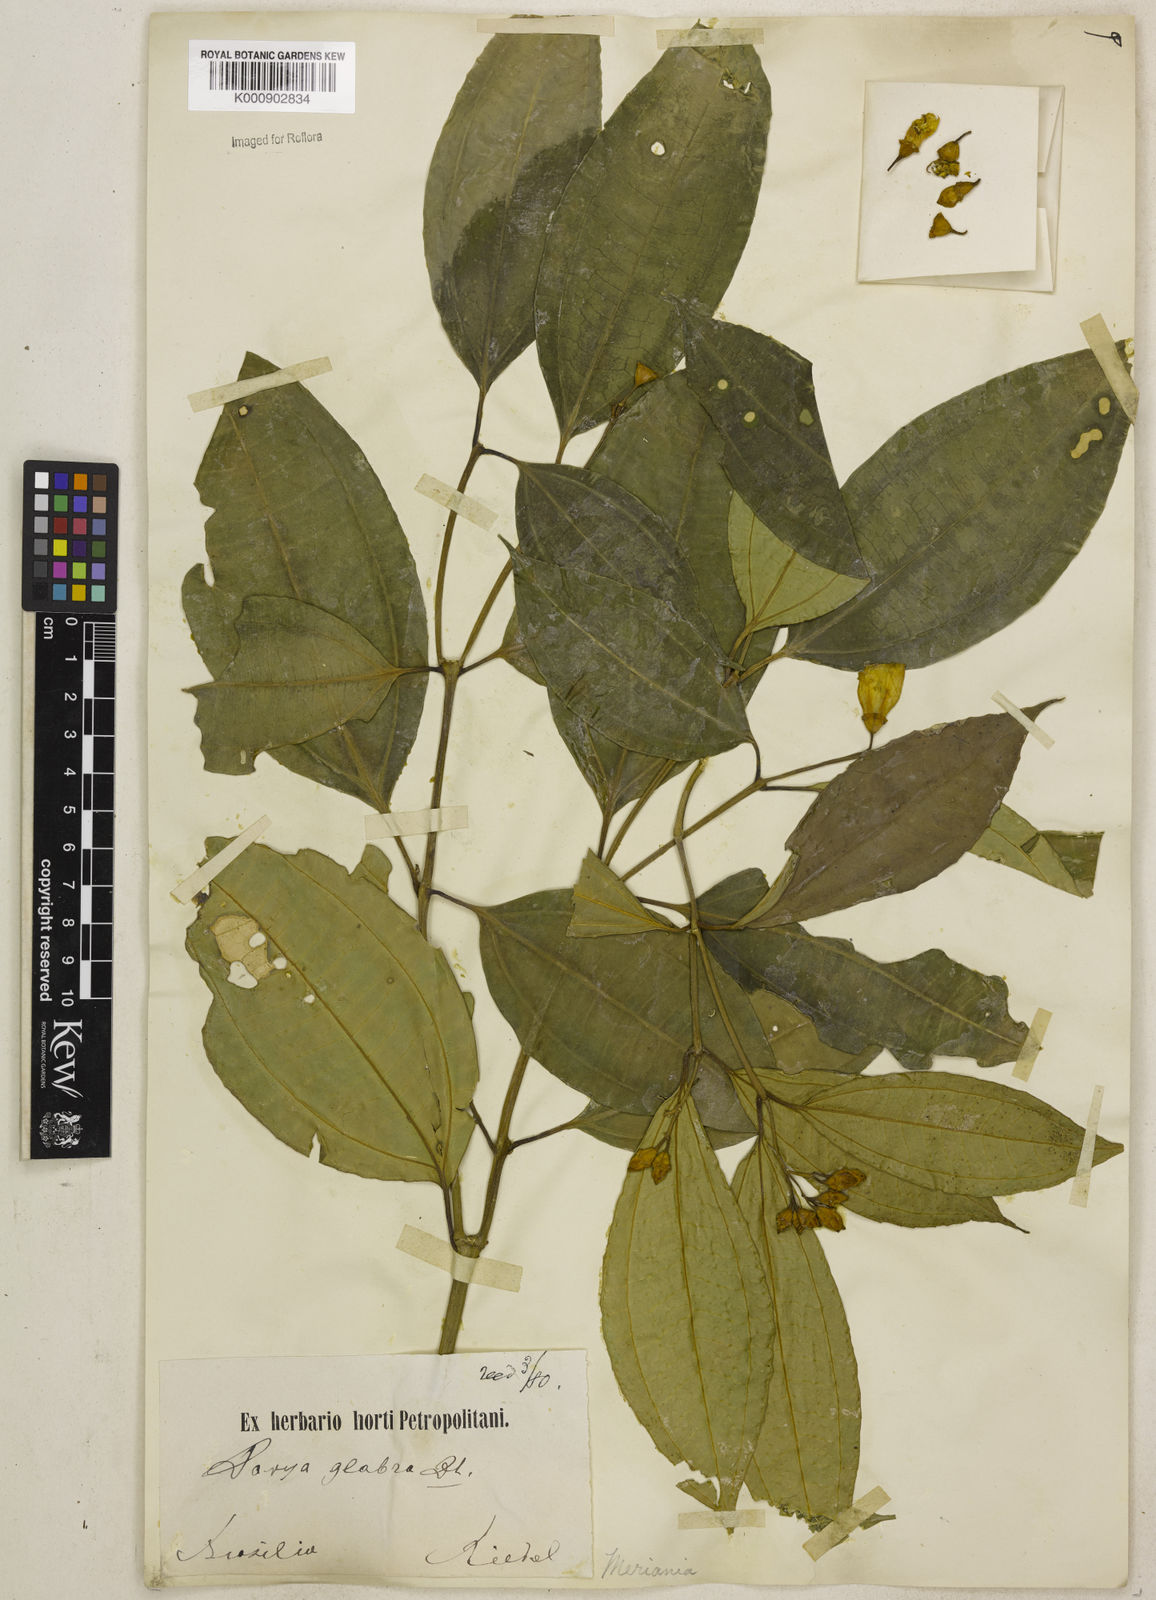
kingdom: Plantae
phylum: Tracheophyta
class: Magnoliopsida
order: Myrtales
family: Melastomataceae
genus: Meriania
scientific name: Meriania glabra
